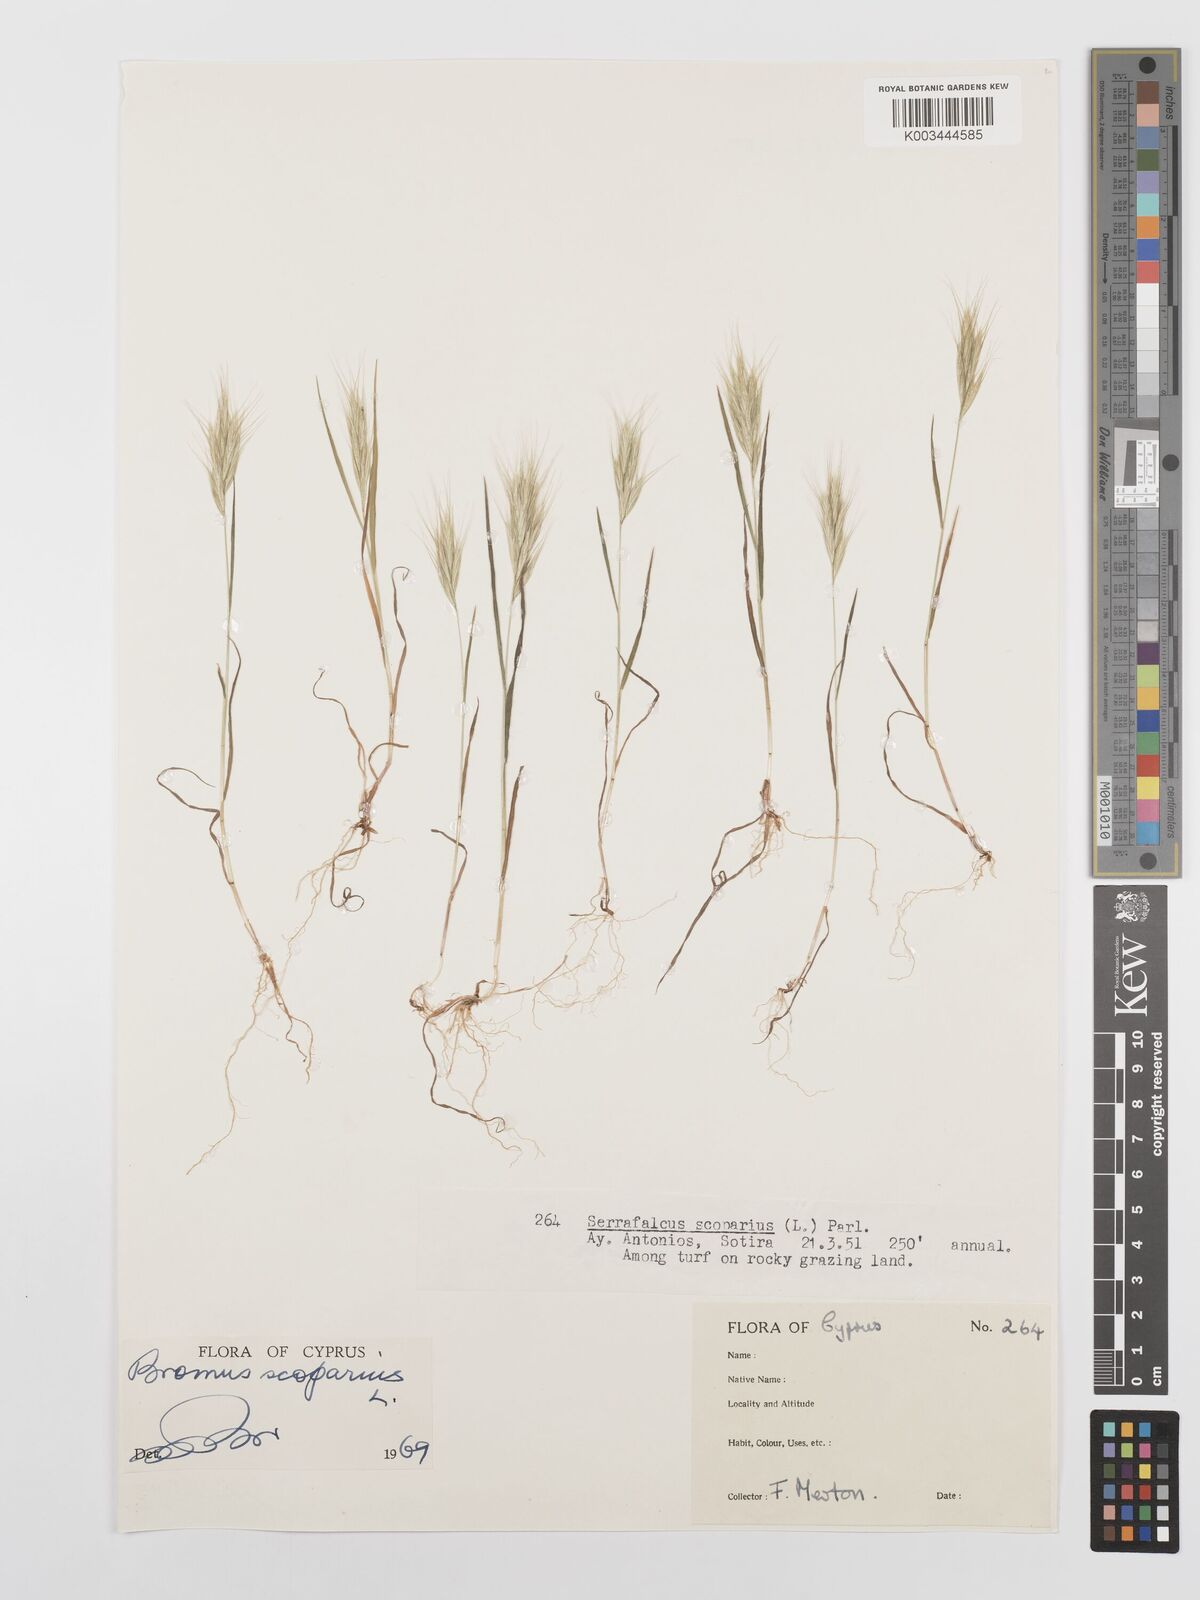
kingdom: Plantae
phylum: Tracheophyta
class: Liliopsida
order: Poales
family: Poaceae
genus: Bromus
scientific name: Bromus scoparius
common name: Broom brome
